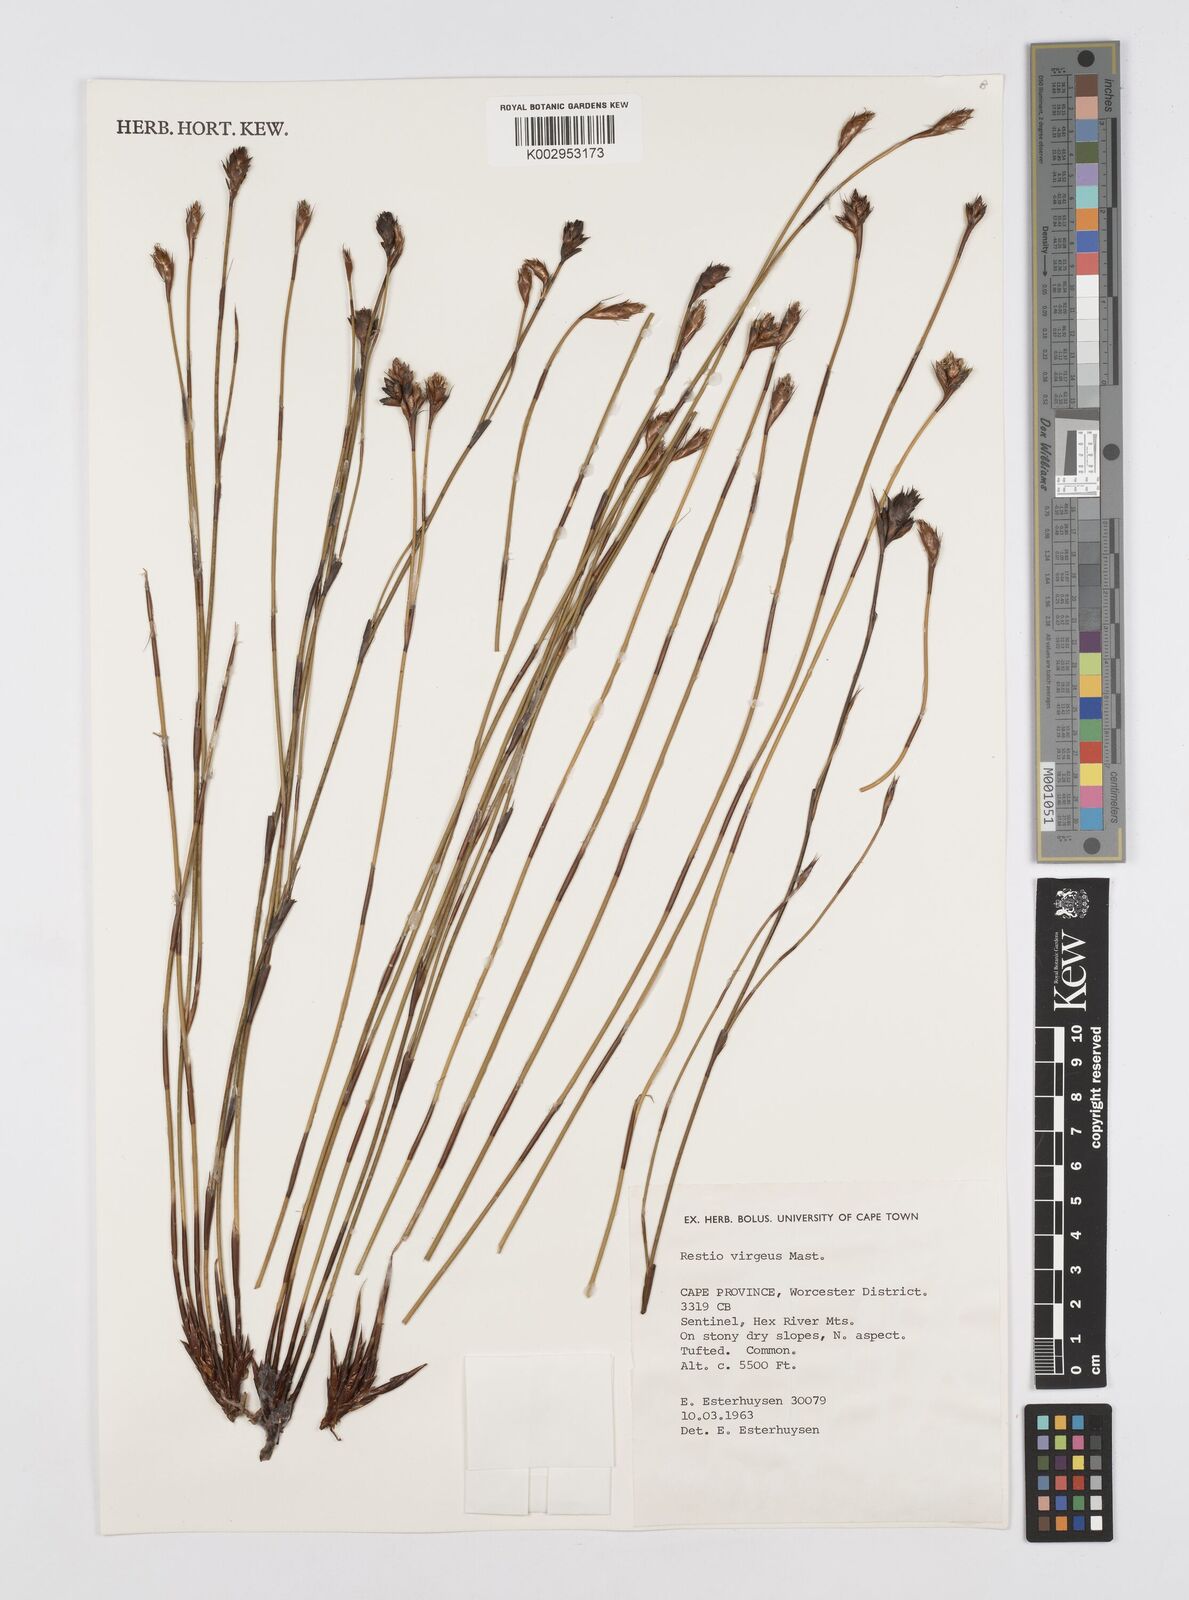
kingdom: Plantae
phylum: Tracheophyta
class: Liliopsida
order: Poales
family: Restionaceae
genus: Restio
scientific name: Restio virgeus
